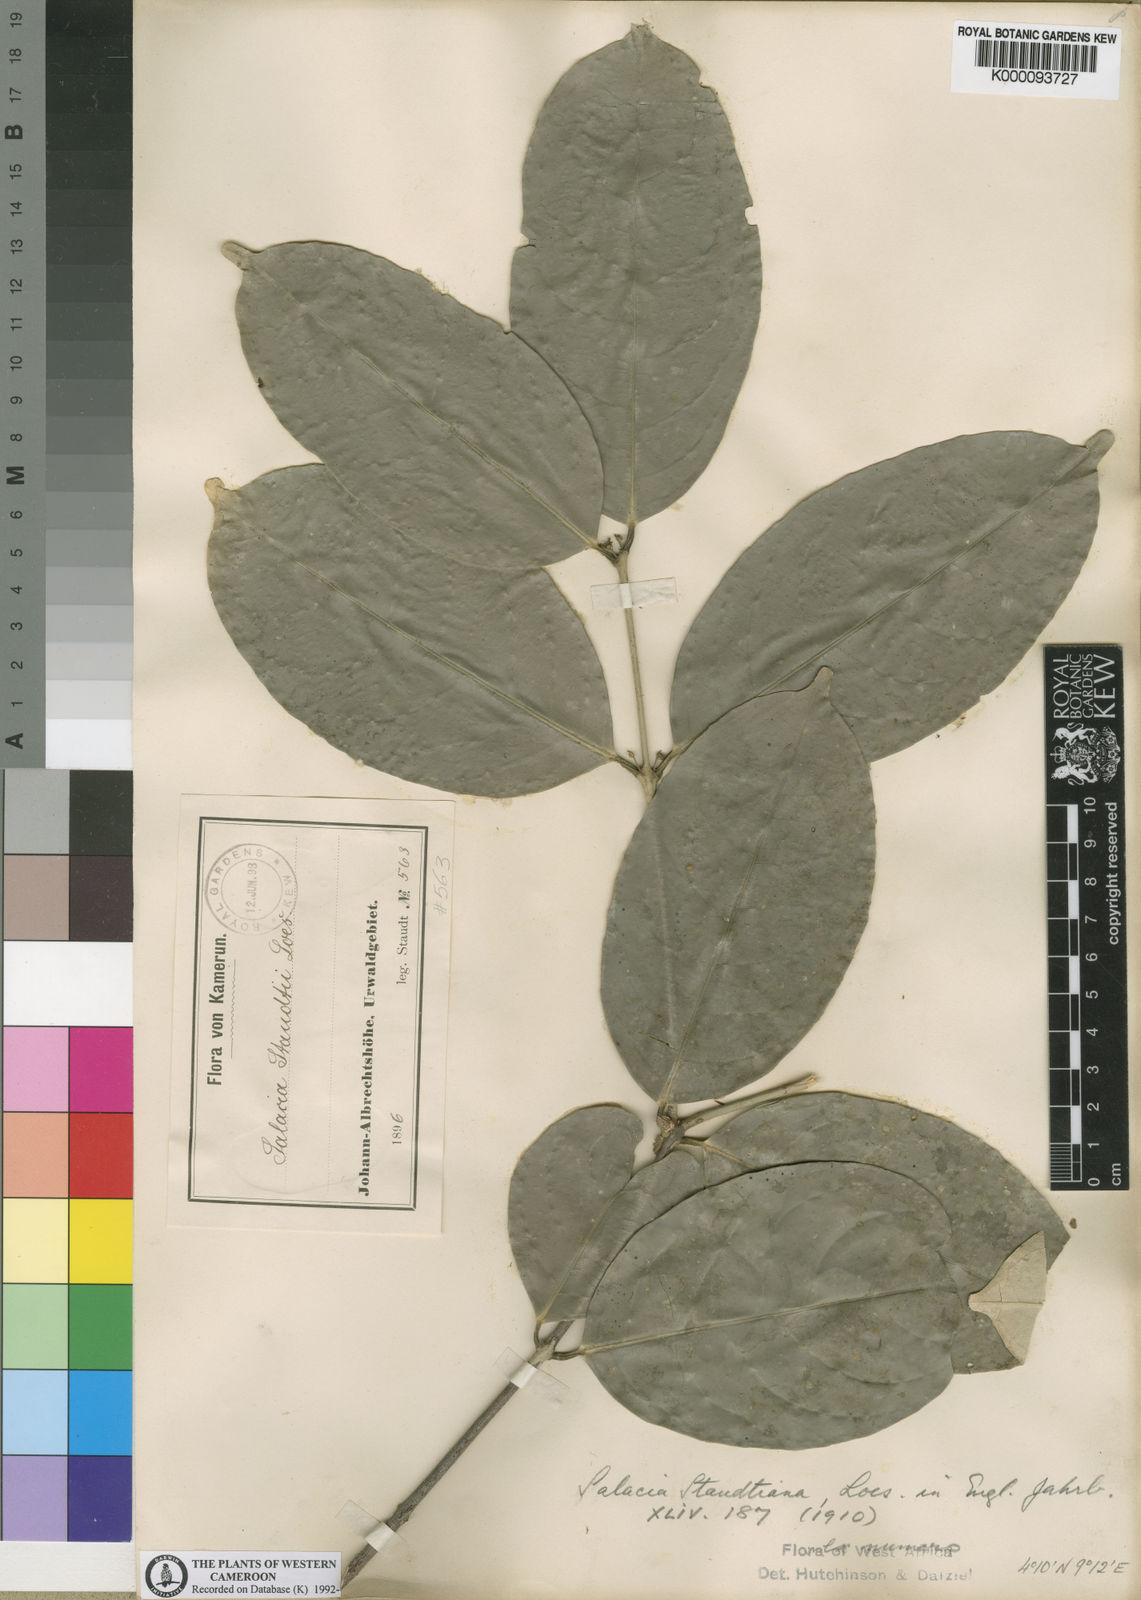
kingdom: Plantae
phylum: Tracheophyta
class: Magnoliopsida
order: Celastrales
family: Celastraceae
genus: Salacia
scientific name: Salacia staudtiana
